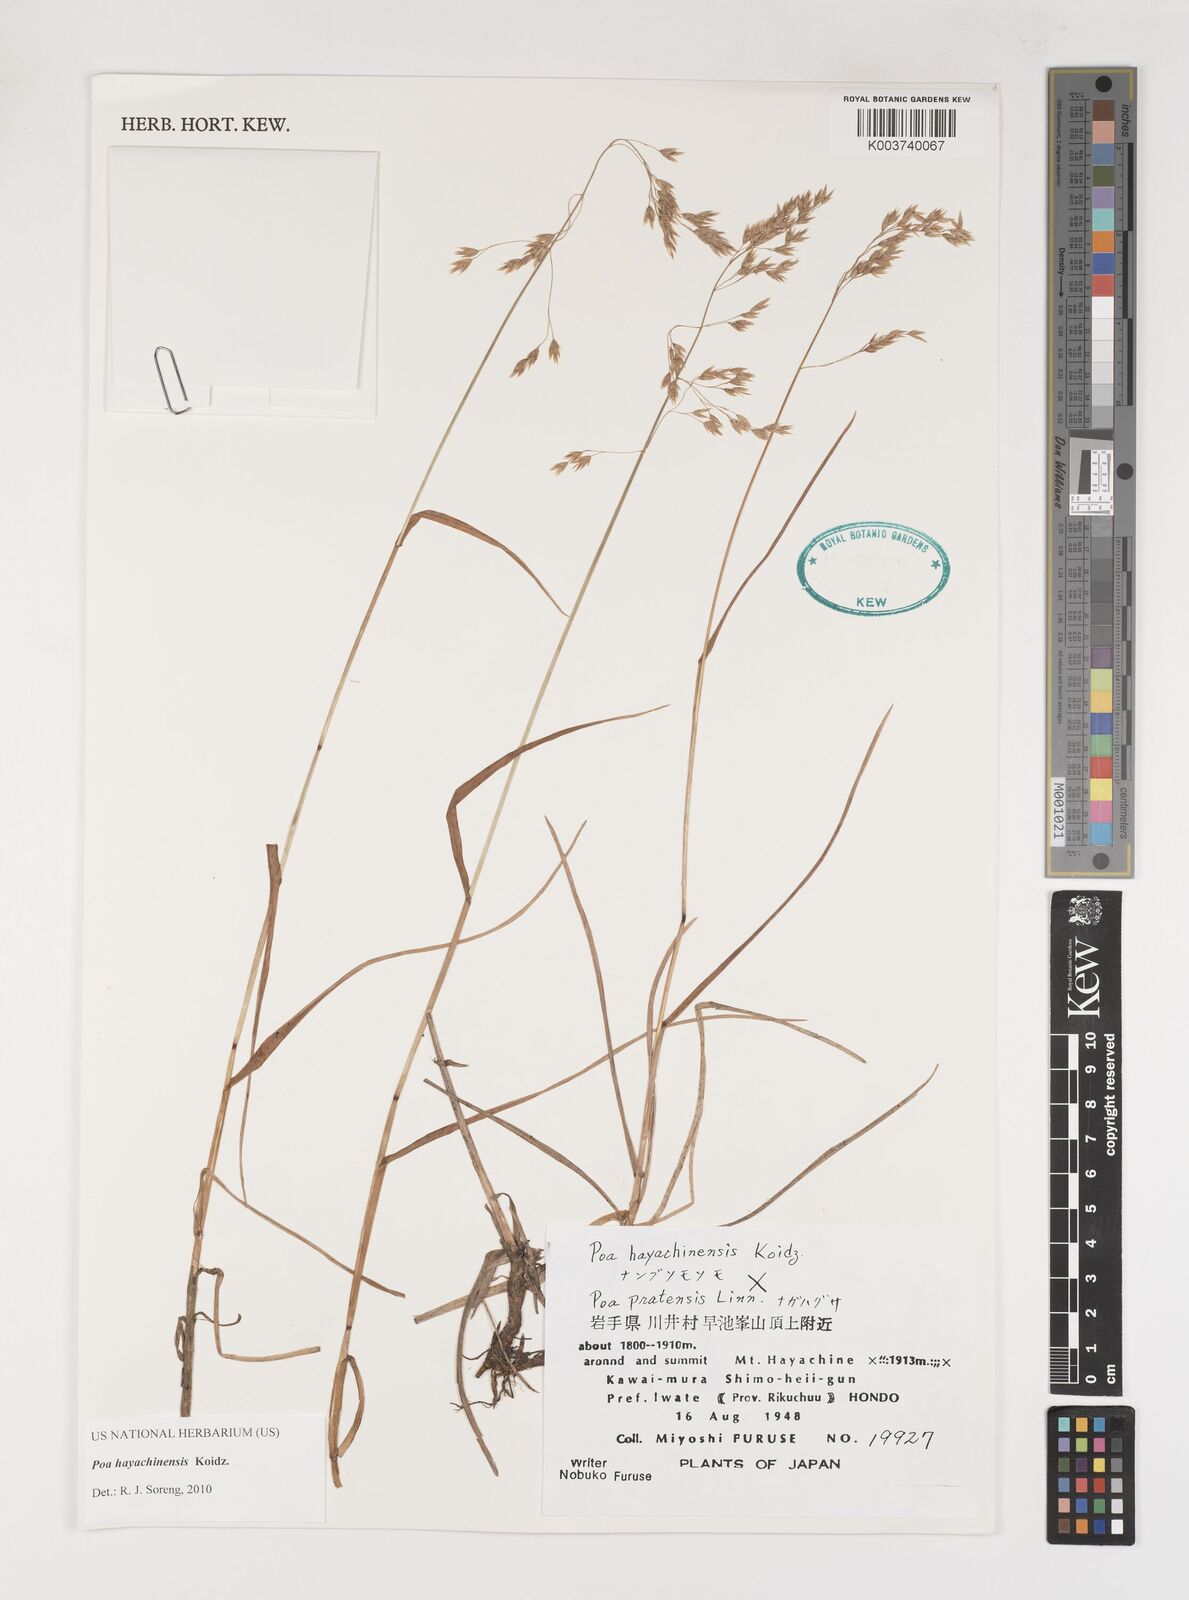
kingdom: Plantae
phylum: Tracheophyta
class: Liliopsida
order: Poales
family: Poaceae
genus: Dupontiopsis
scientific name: Dupontiopsis hayachinensis
